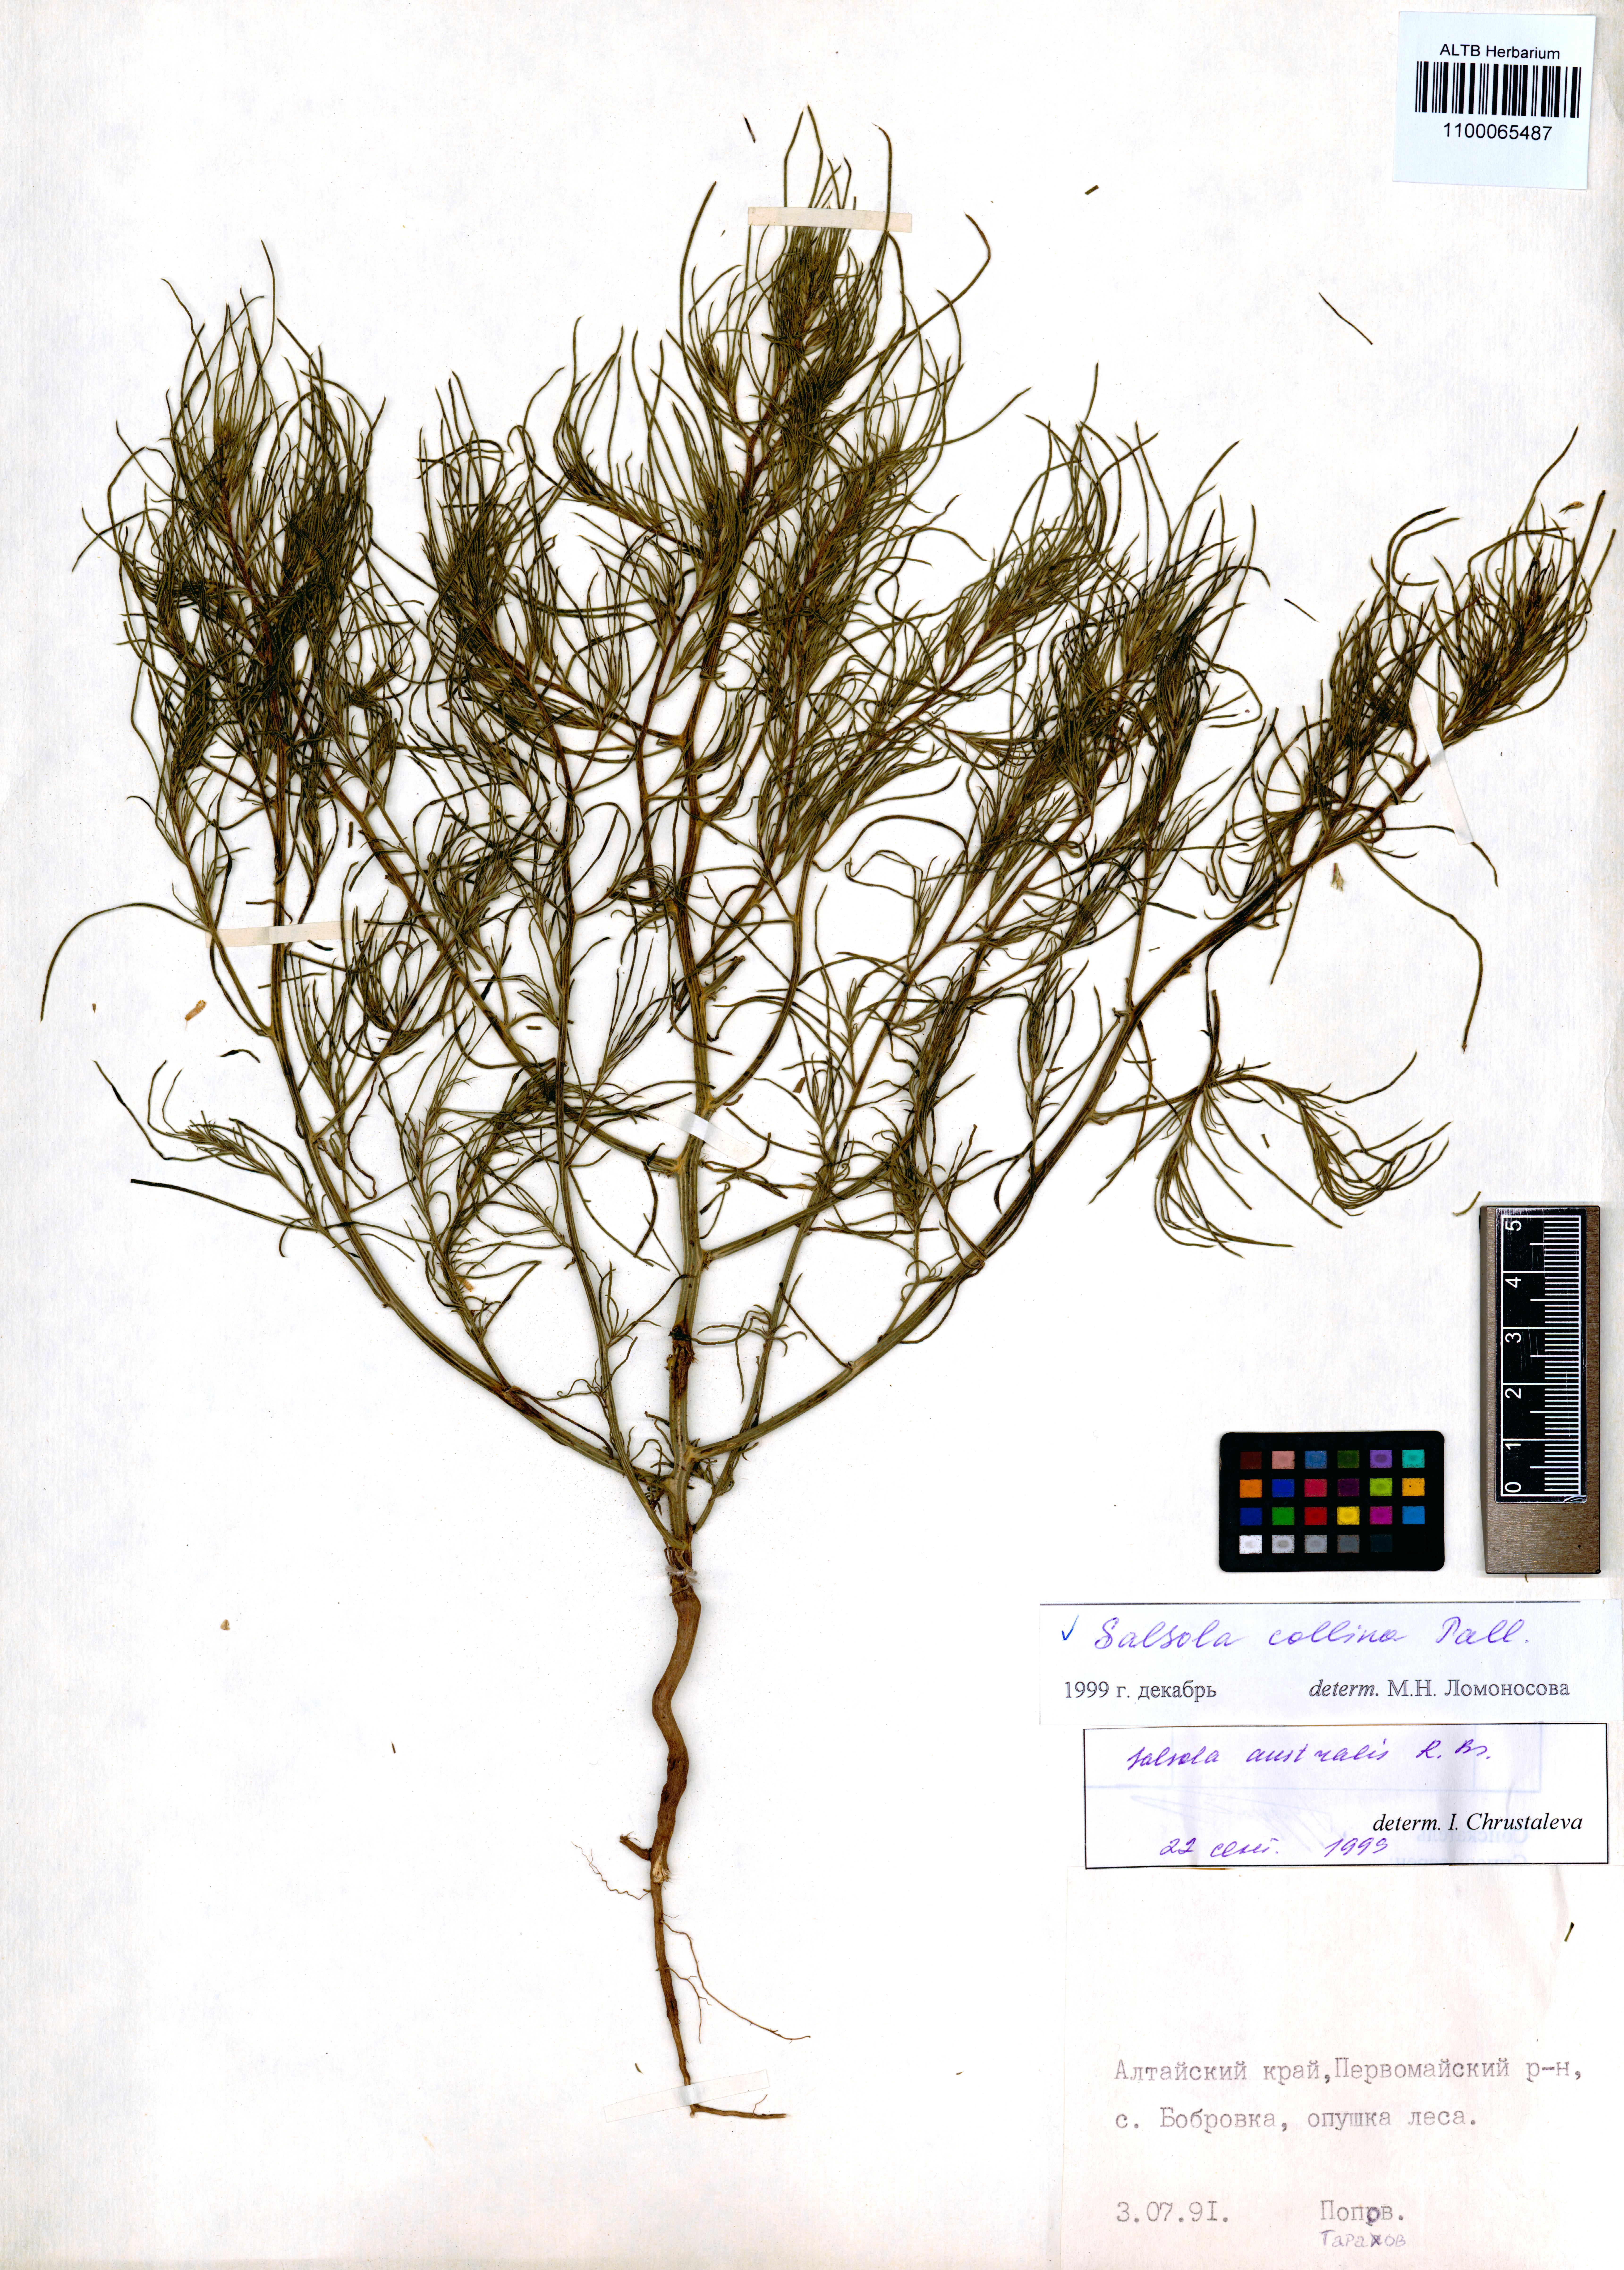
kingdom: Plantae
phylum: Tracheophyta
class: Magnoliopsida
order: Caryophyllales
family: Amaranthaceae
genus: Salsola
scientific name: Salsola collina
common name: Tumbleweed
